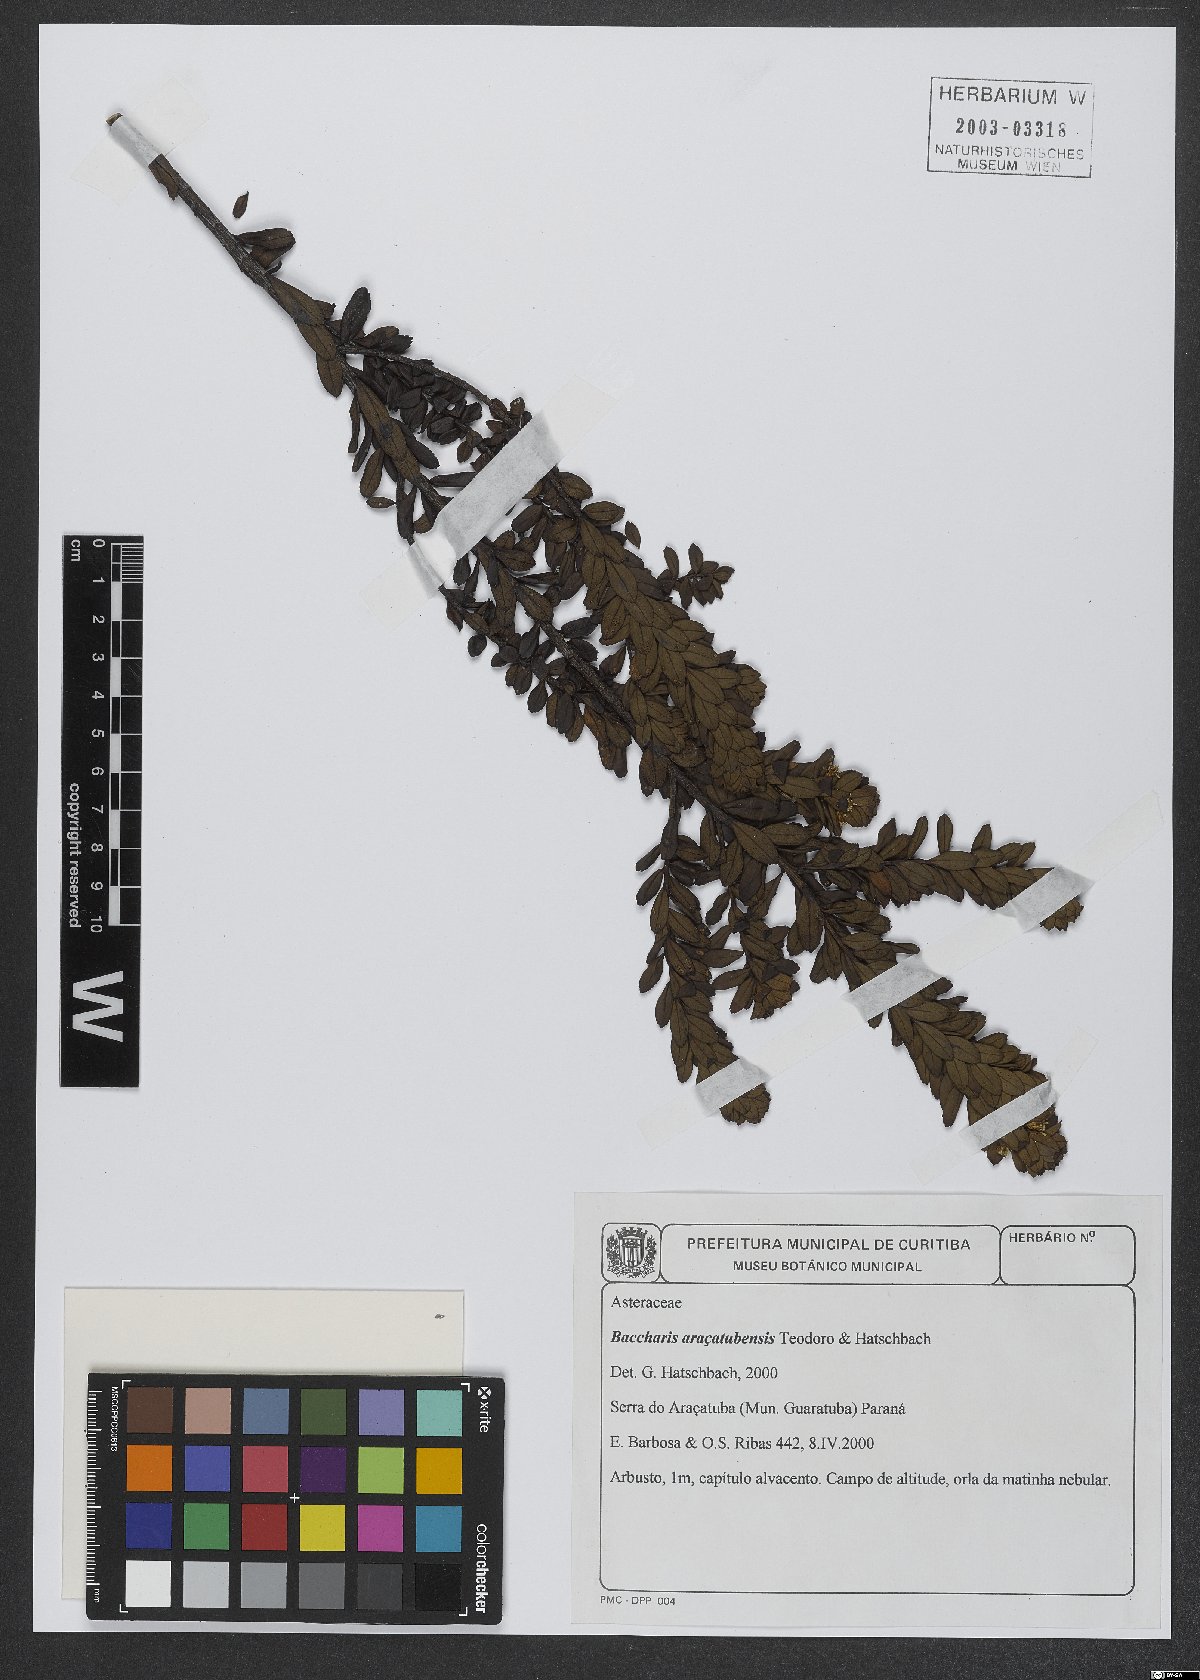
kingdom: Plantae
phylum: Tracheophyta
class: Magnoliopsida
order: Asterales
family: Asteraceae
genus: Baccharis
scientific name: Baccharis aracatubensis
